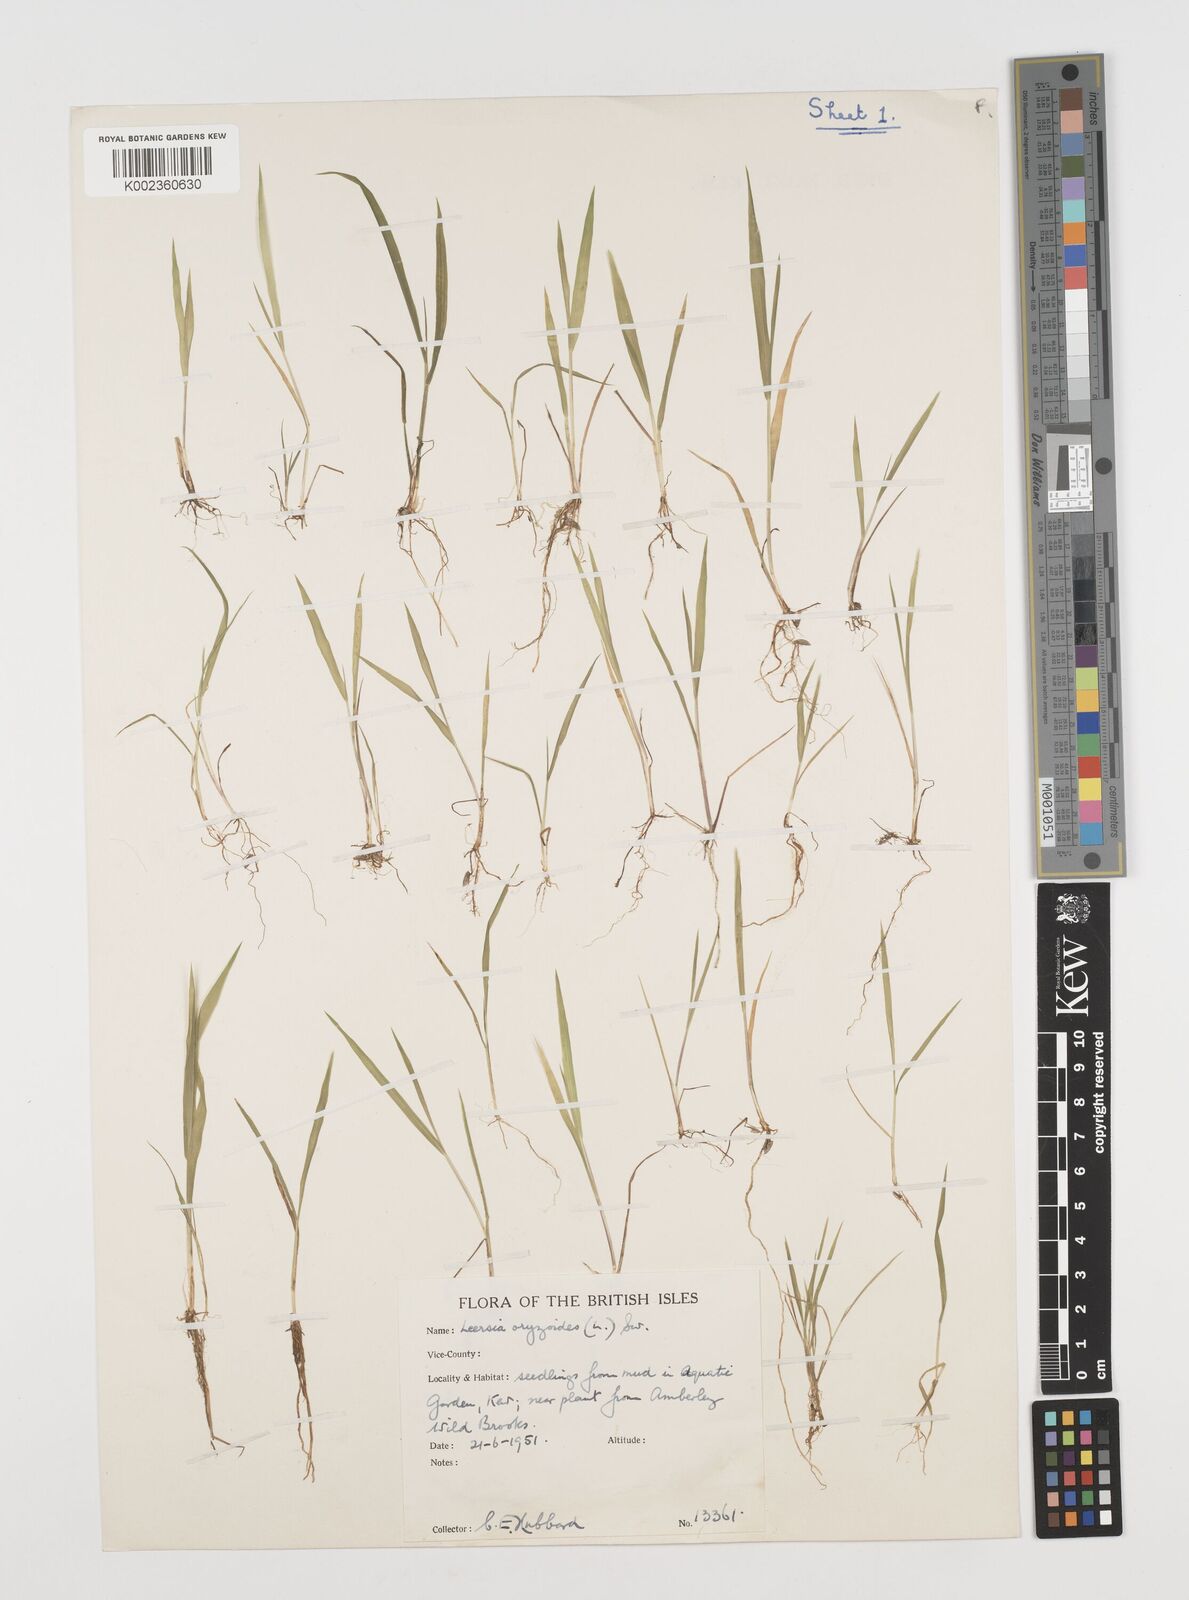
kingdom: Plantae
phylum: Tracheophyta
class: Liliopsida
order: Poales
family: Poaceae
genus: Leersia
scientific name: Leersia oryzoides
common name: Cut-grass
